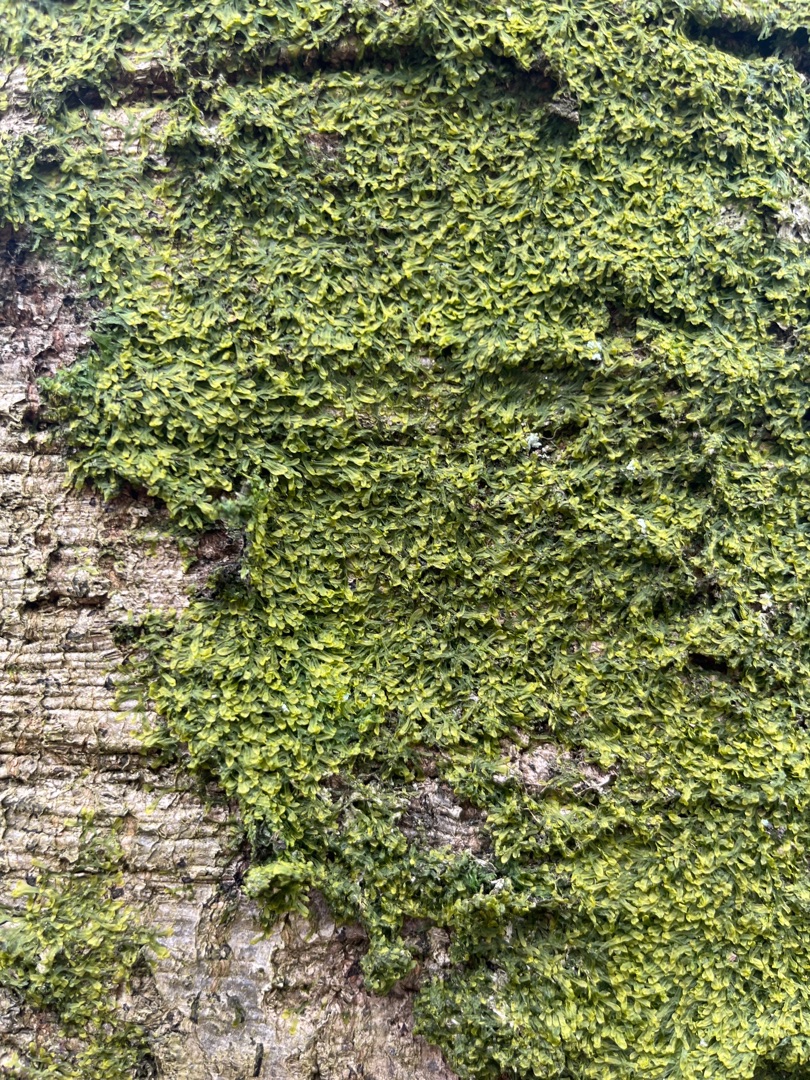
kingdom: Plantae
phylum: Marchantiophyta
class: Jungermanniopsida
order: Metzgeriales
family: Metzgeriaceae
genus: Metzgeria
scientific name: Metzgeria furcata
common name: Almindelig gaffelløv
